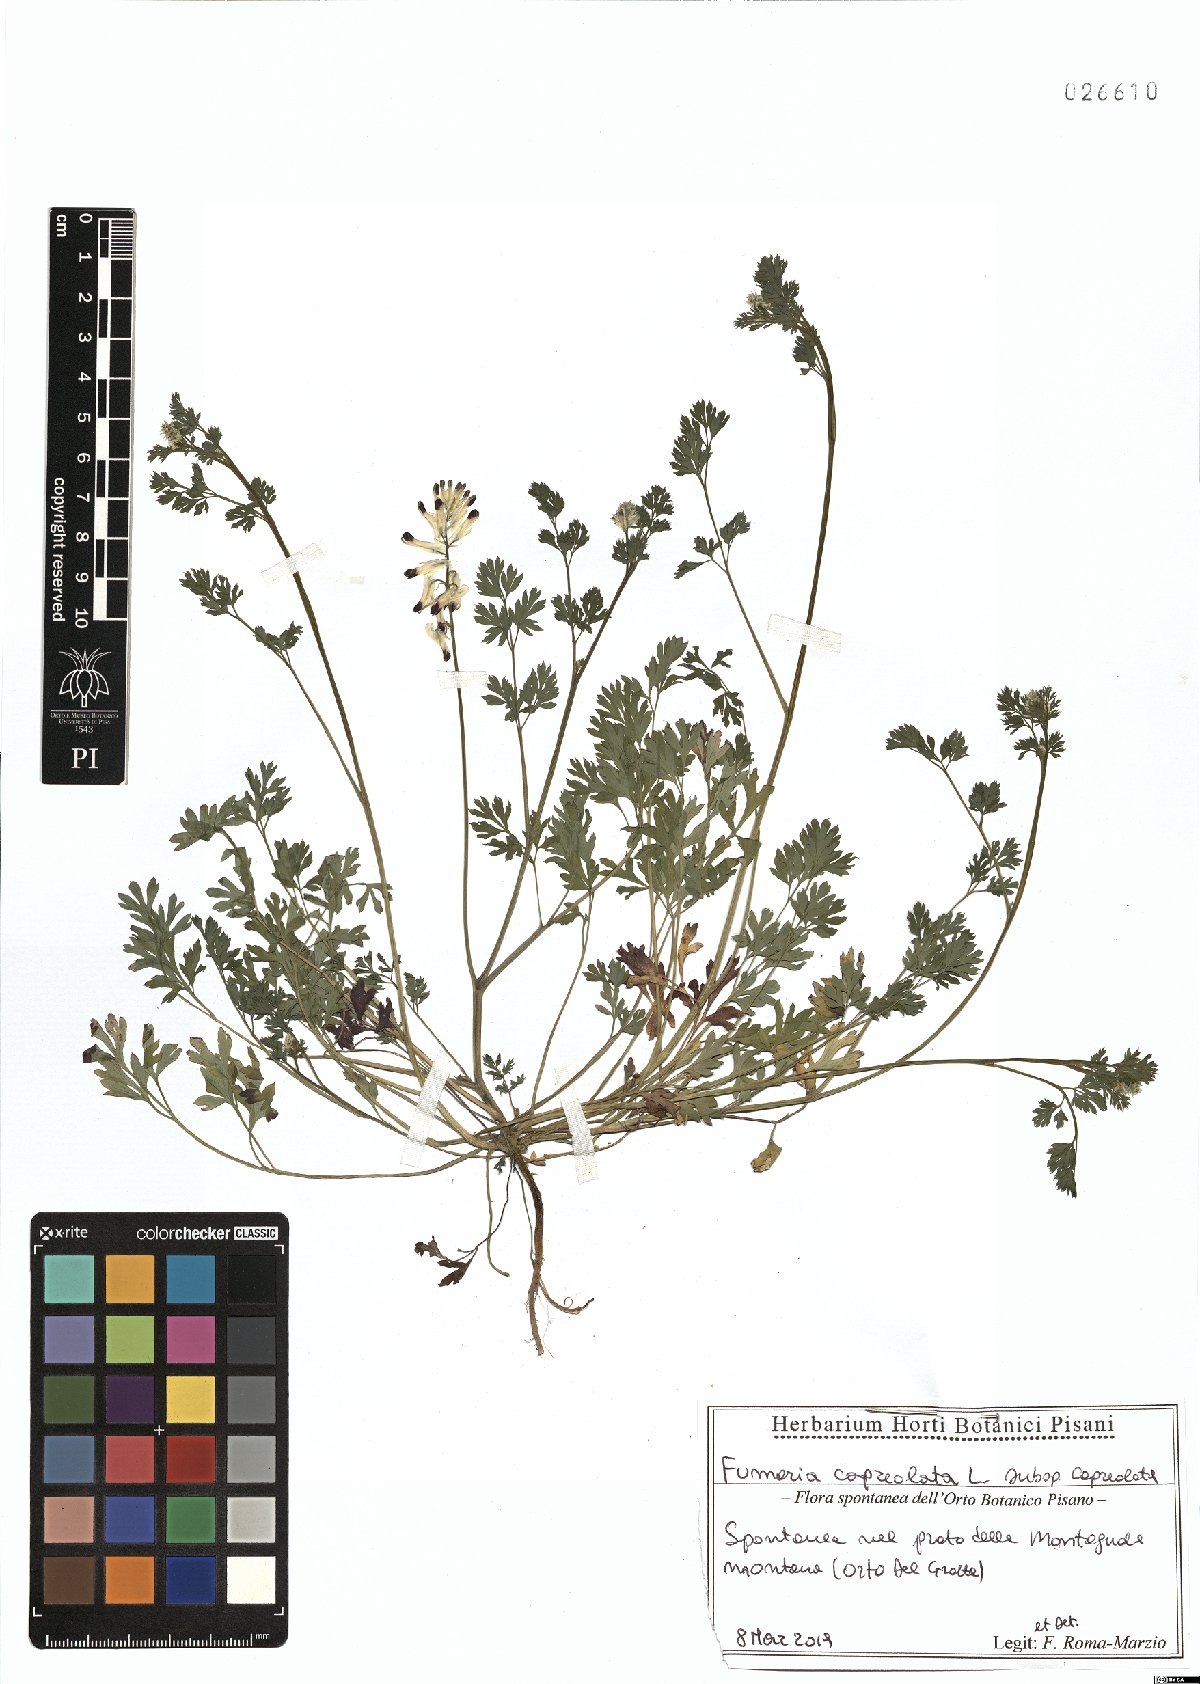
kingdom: Plantae
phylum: Tracheophyta
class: Magnoliopsida
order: Ranunculales
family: Papaveraceae
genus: Fumaria
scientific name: Fumaria capreolata
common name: White ramping-fumitory
